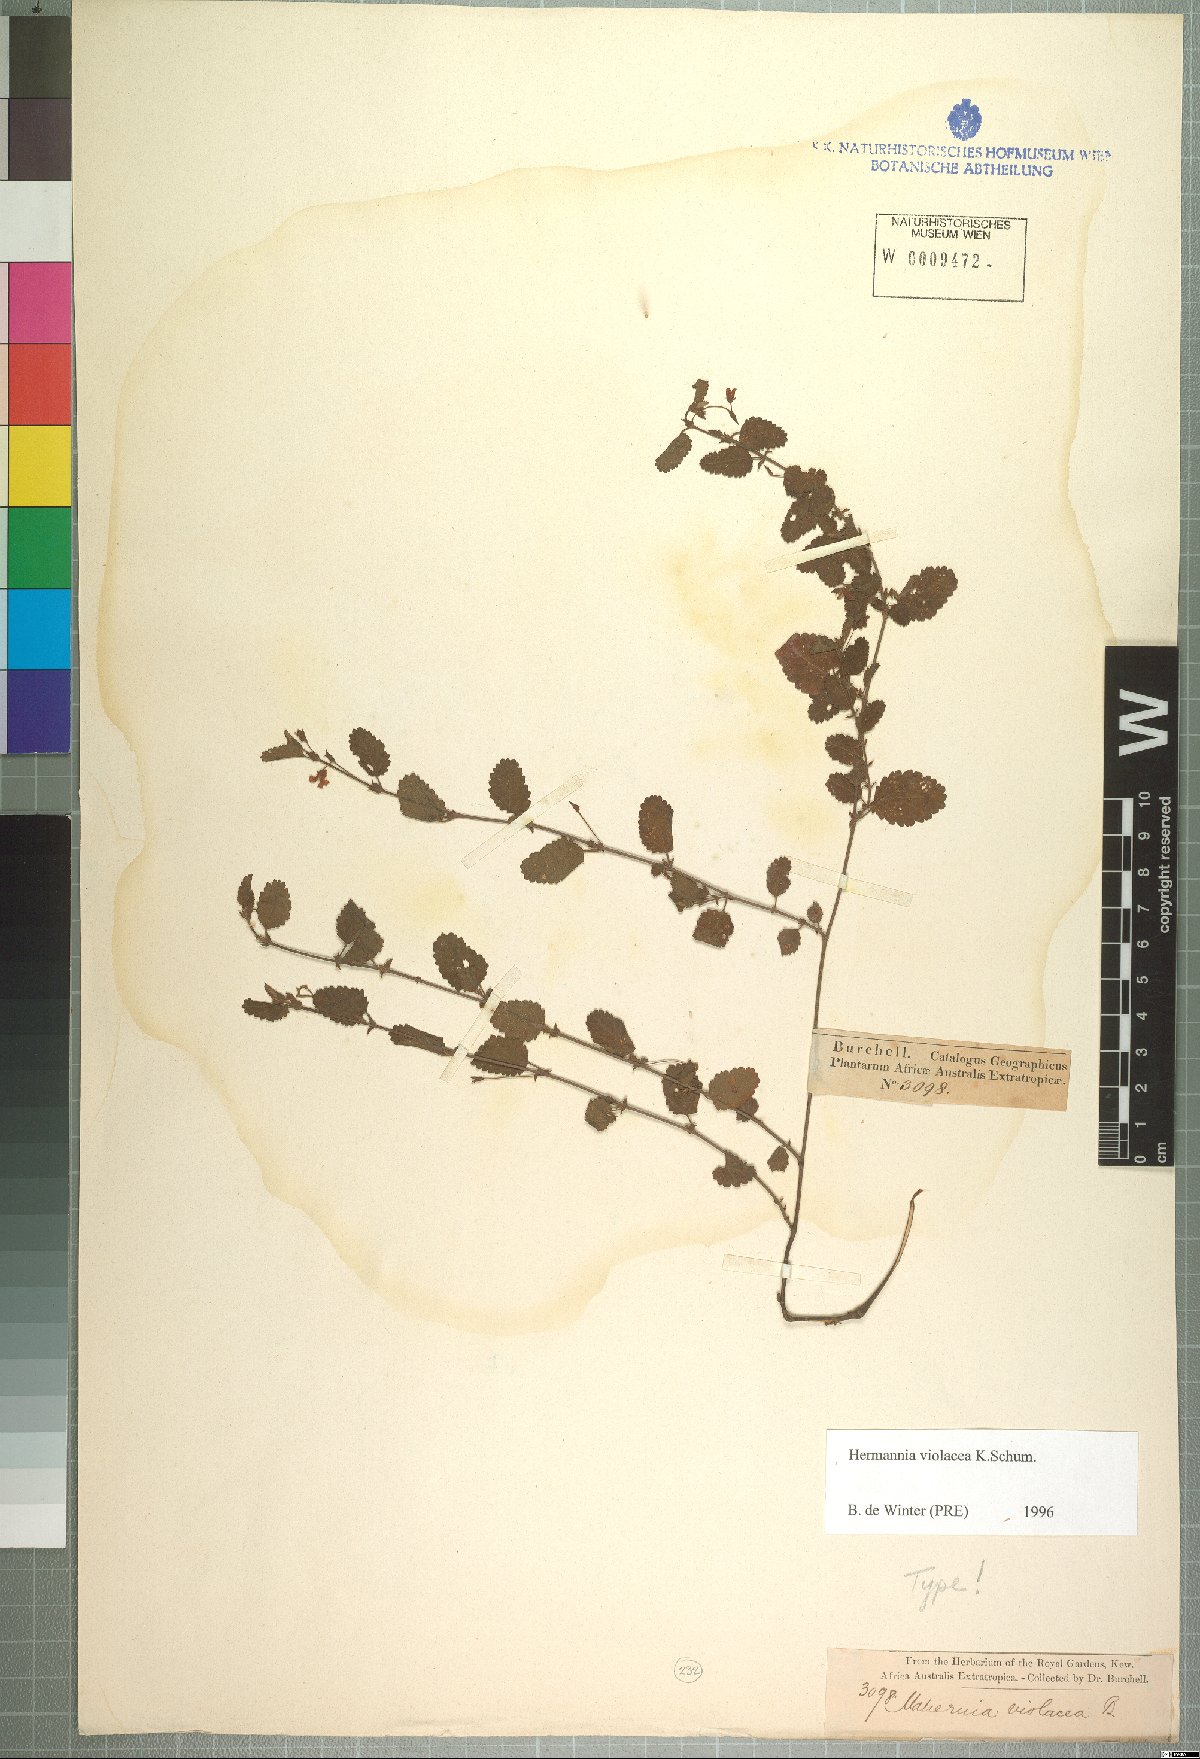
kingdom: Plantae
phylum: Tracheophyta
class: Magnoliopsida
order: Malvales
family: Malvaceae
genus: Hermannia
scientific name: Hermannia violacea
